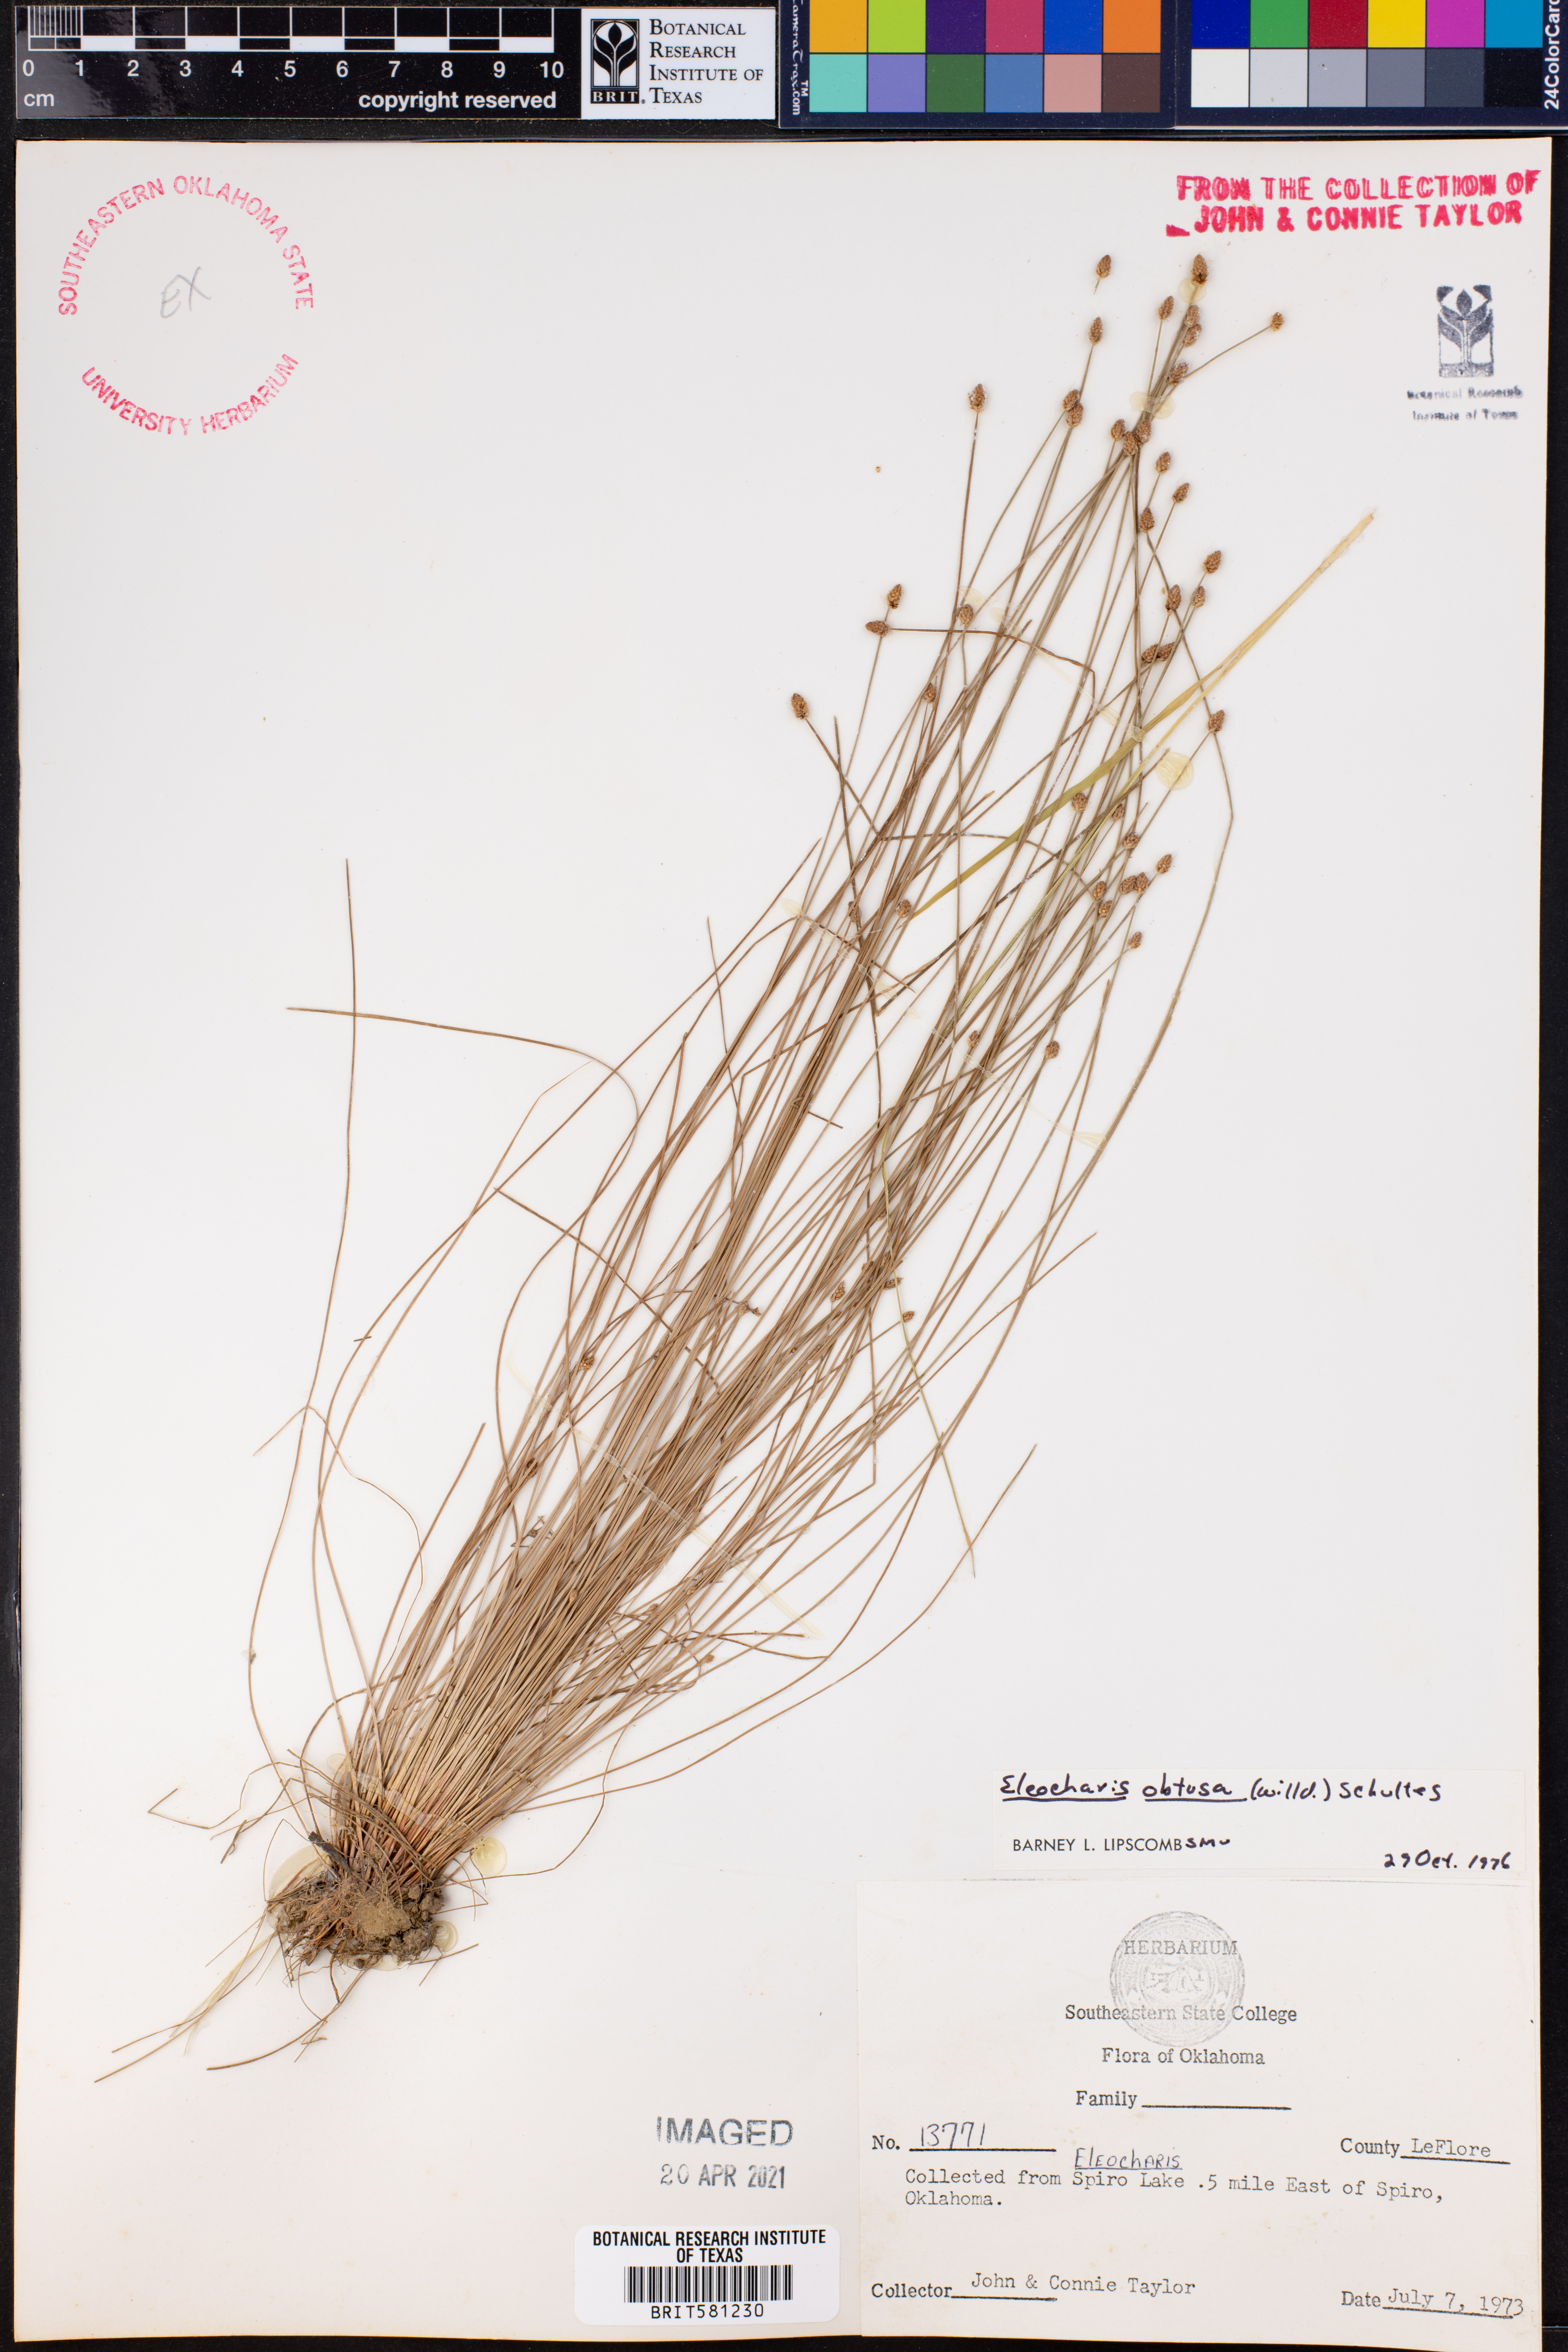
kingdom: Plantae
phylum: Tracheophyta
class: Liliopsida
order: Poales
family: Cyperaceae
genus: Eleocharis
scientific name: Eleocharis obtusa
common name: Blunt spikerush
